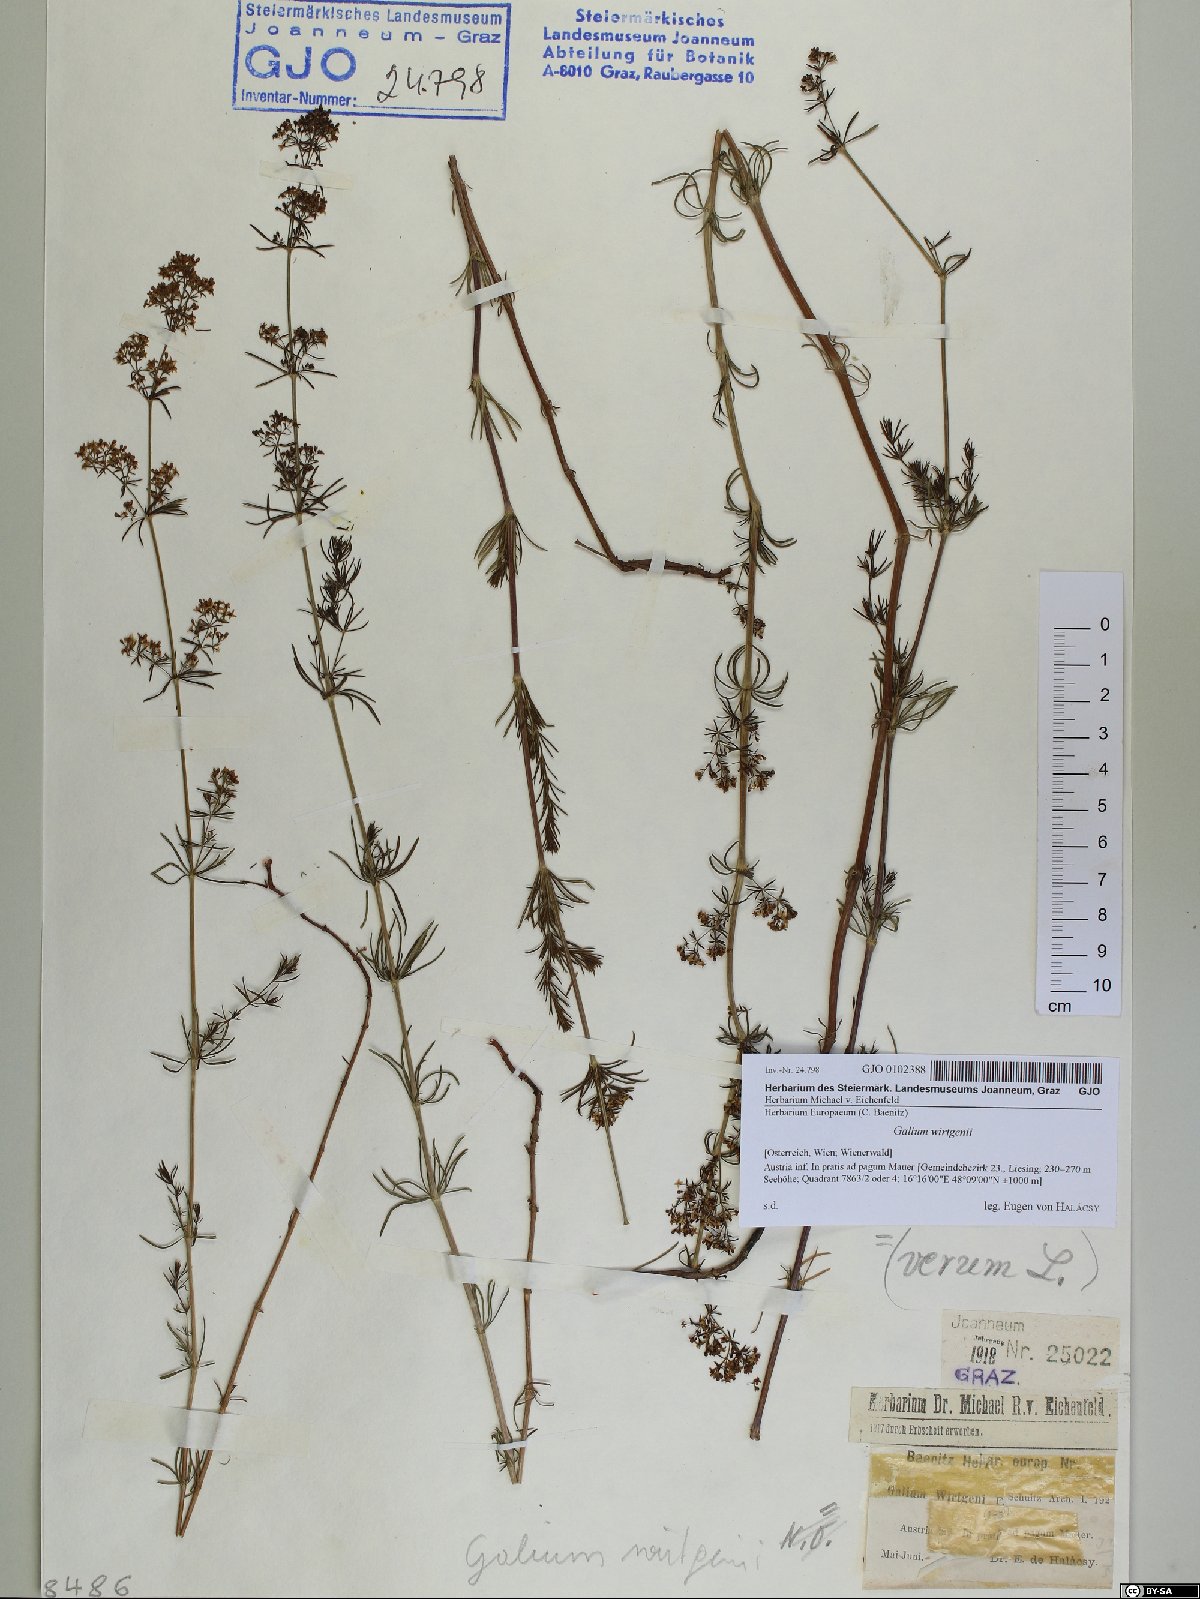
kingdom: Plantae
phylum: Tracheophyta
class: Magnoliopsida
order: Gentianales
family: Rubiaceae
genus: Galium
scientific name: Galium verum
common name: Lady's bedstraw
